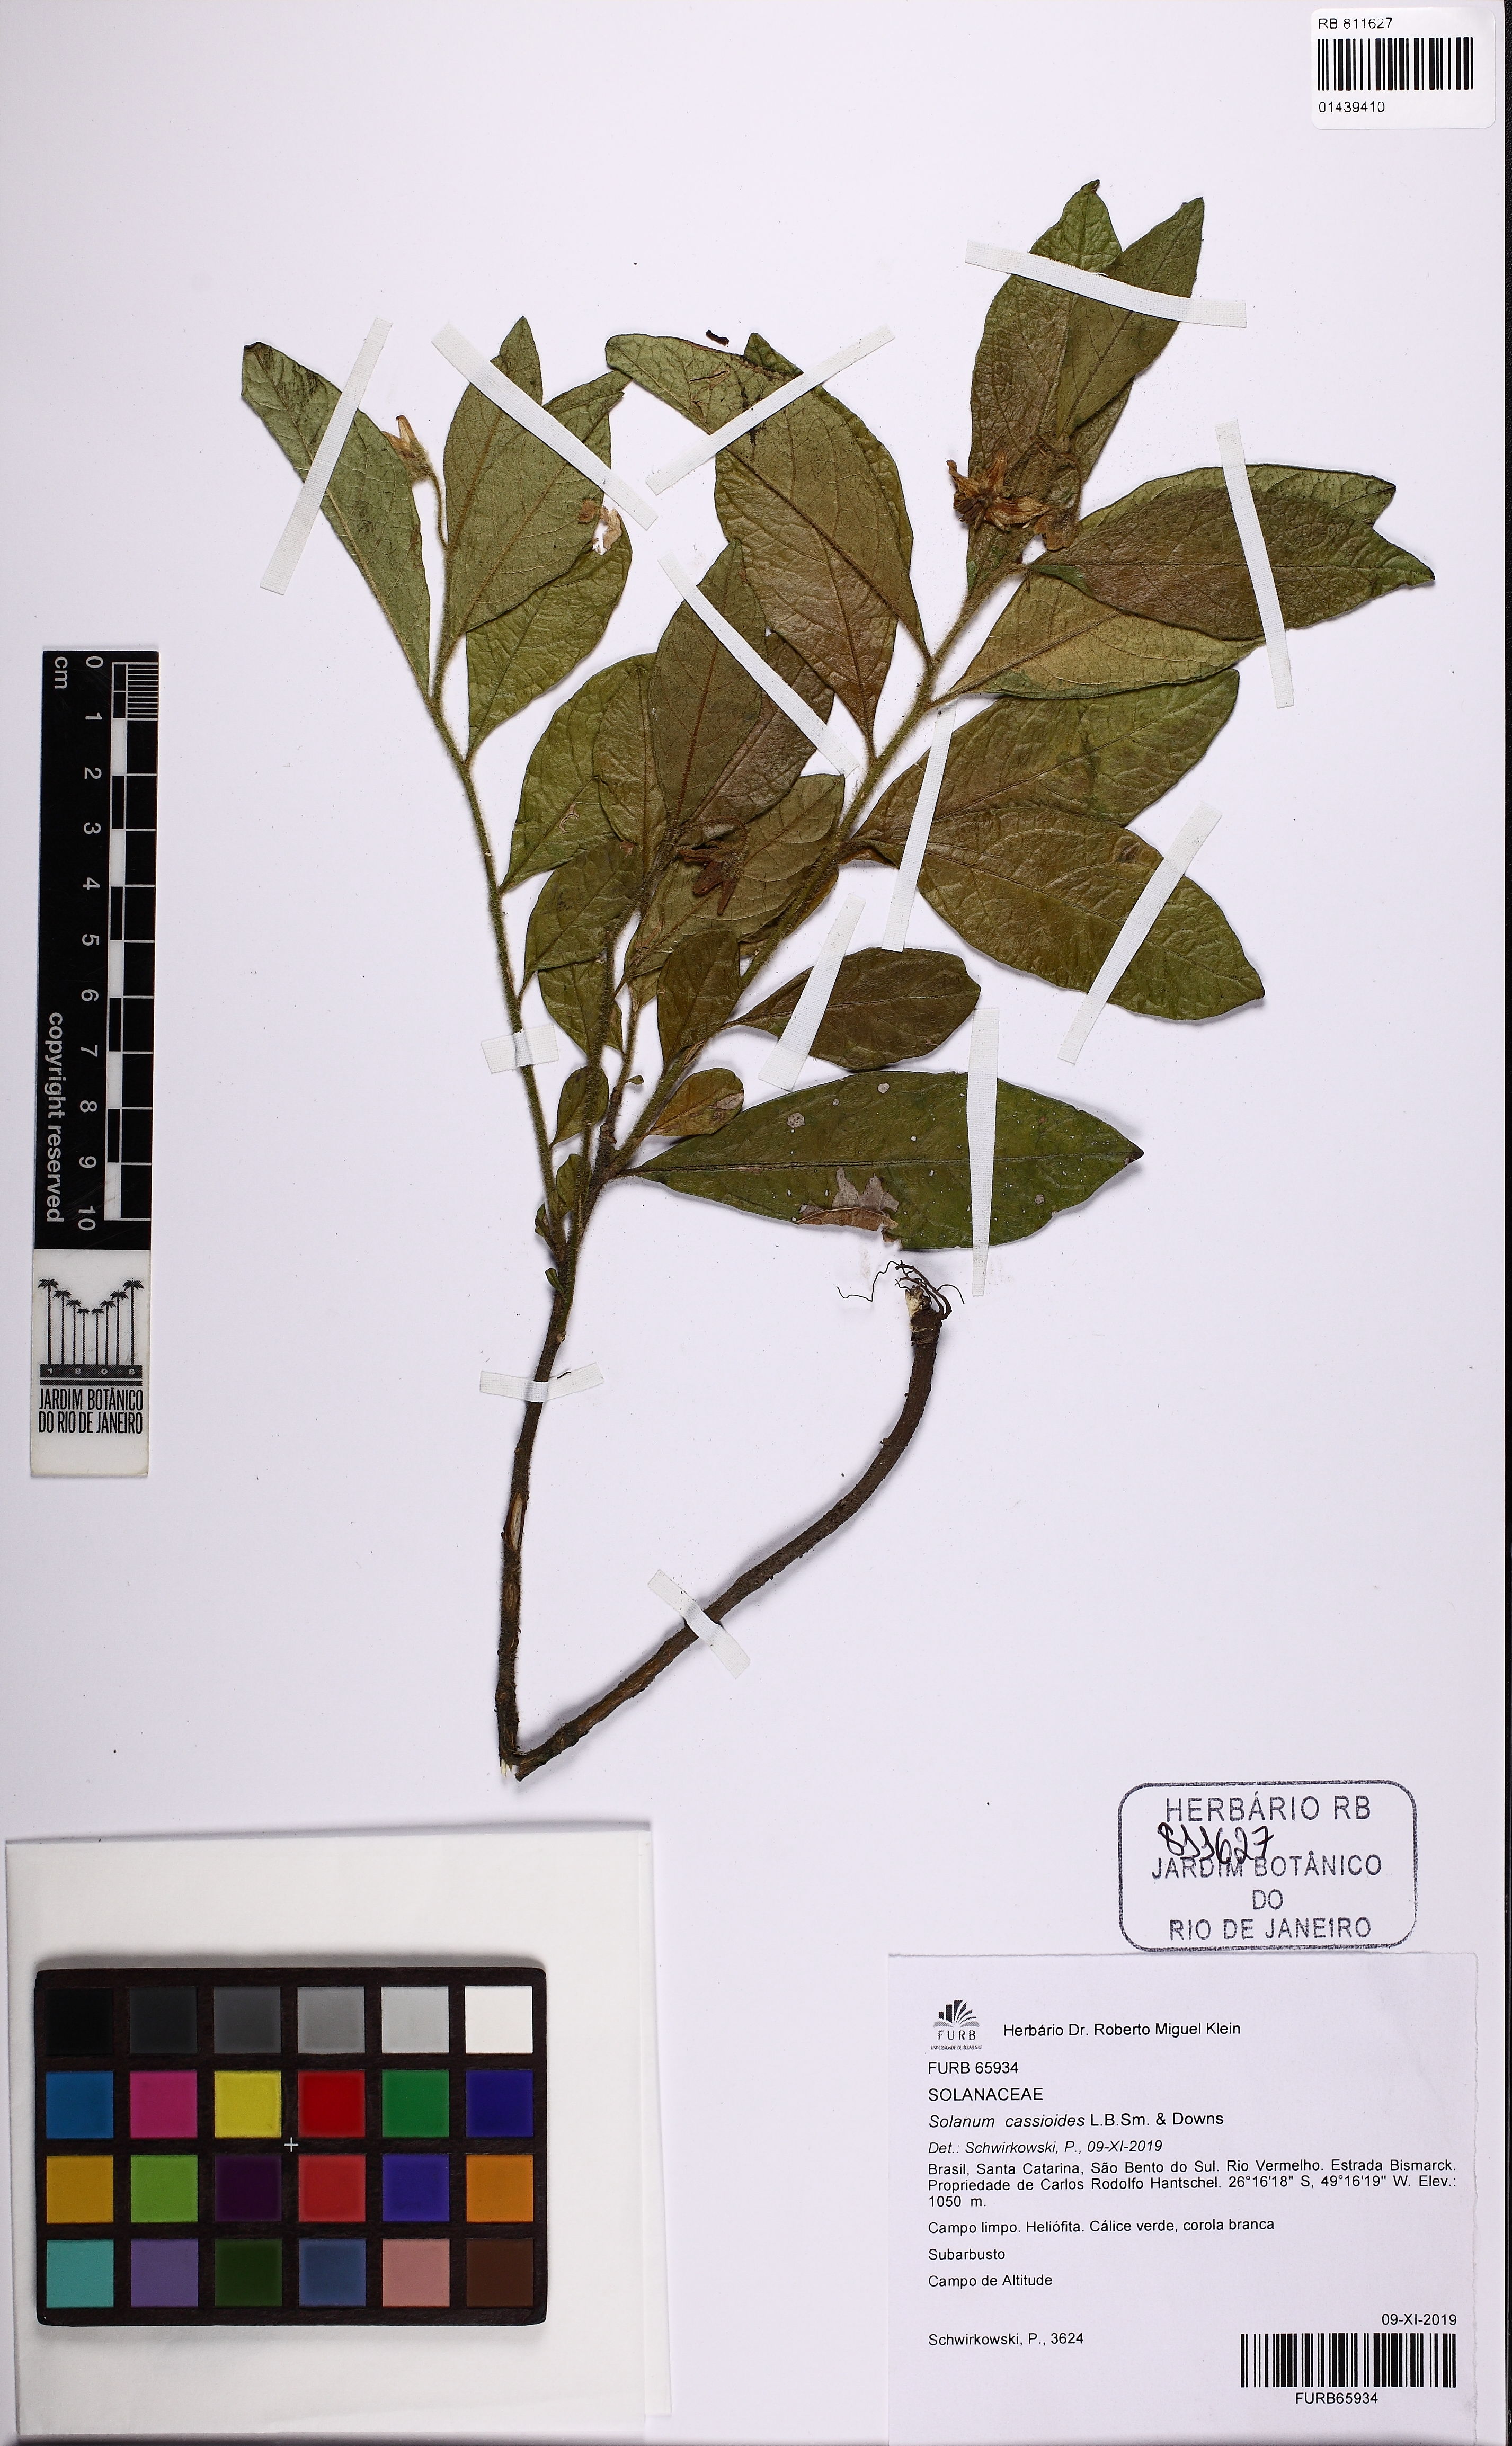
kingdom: Plantae
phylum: Tracheophyta
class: Magnoliopsida
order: Solanales
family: Solanaceae
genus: Solanum
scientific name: Solanum cassioides
